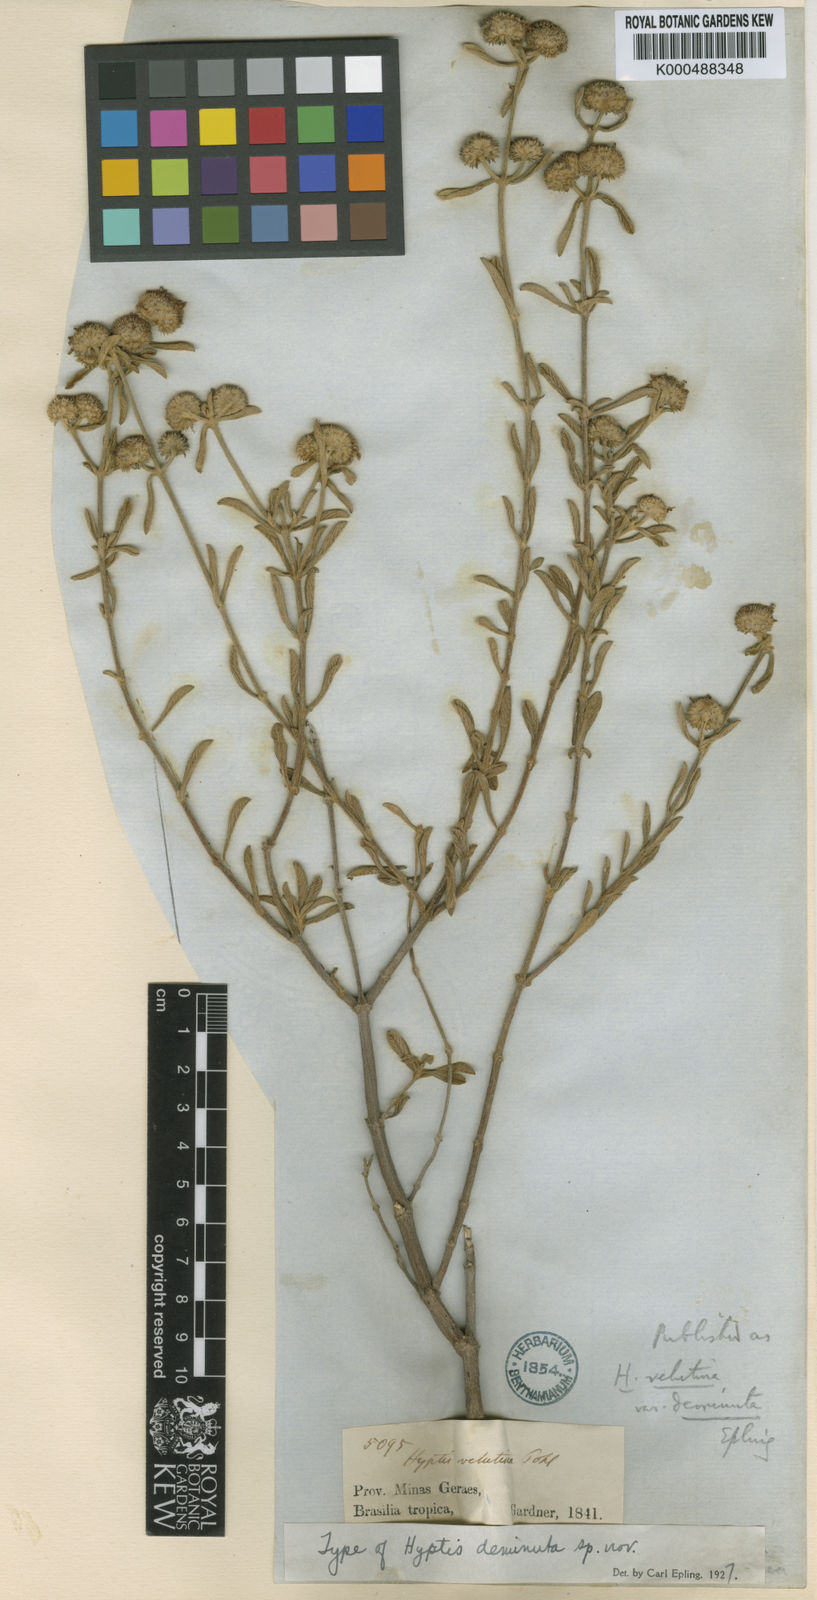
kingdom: Plantae
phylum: Tracheophyta
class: Magnoliopsida
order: Lamiales
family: Lamiaceae
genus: Hyptis
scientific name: Hyptis deminuta
